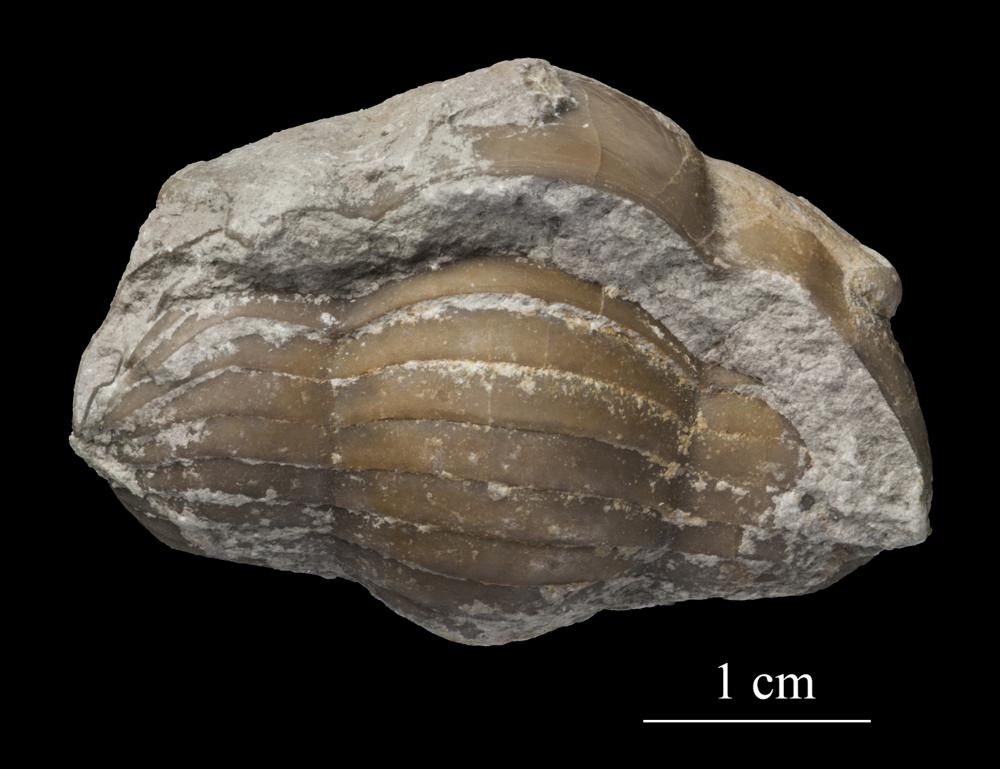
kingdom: Animalia
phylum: Arthropoda
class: Trilobita
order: Corynexochida
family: Illaenidae
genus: Illaenus
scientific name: Illaenus
